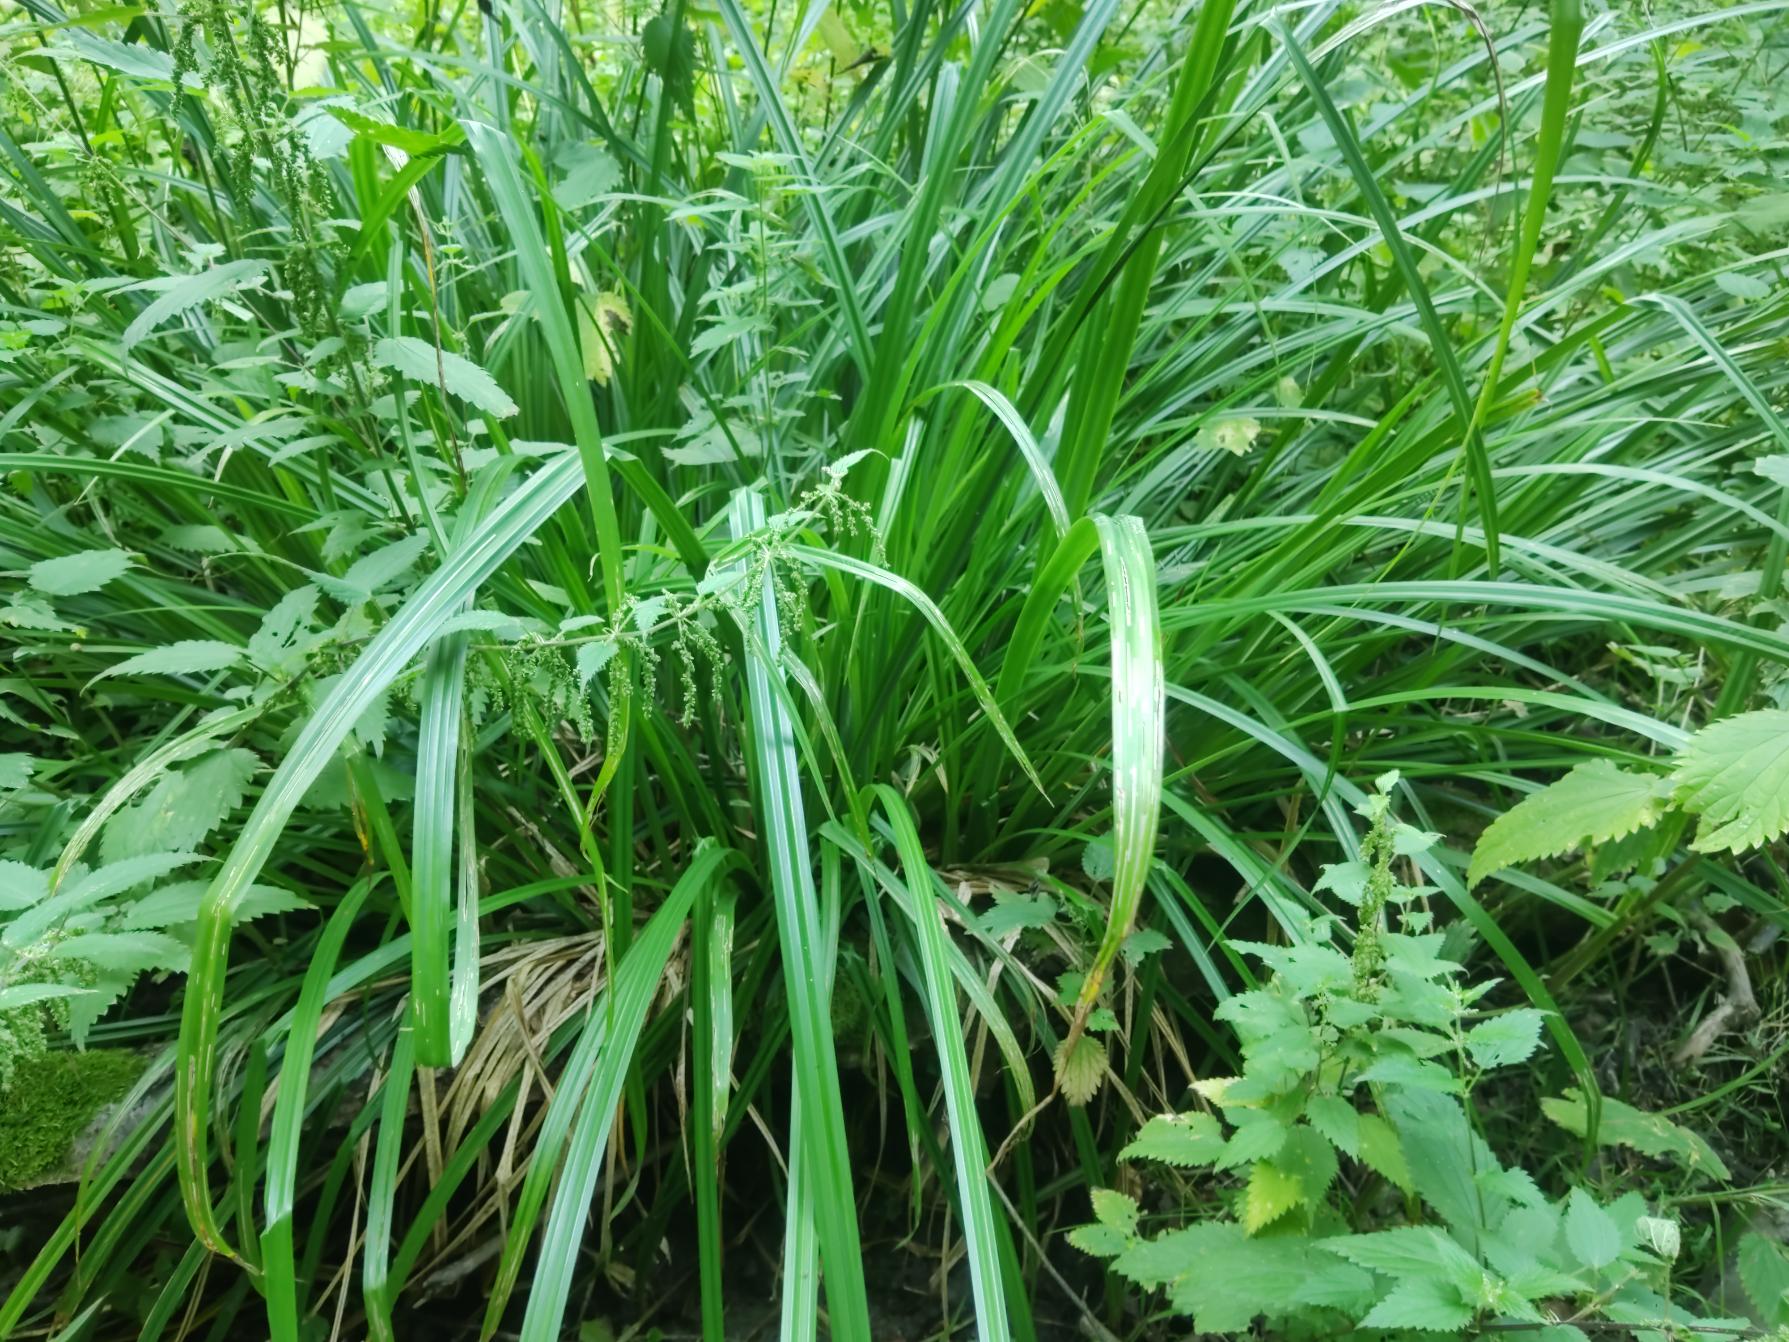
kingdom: Plantae
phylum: Tracheophyta
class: Liliopsida
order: Poales
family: Cyperaceae
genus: Carex
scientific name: Carex pendula
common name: Kæmpe-star
